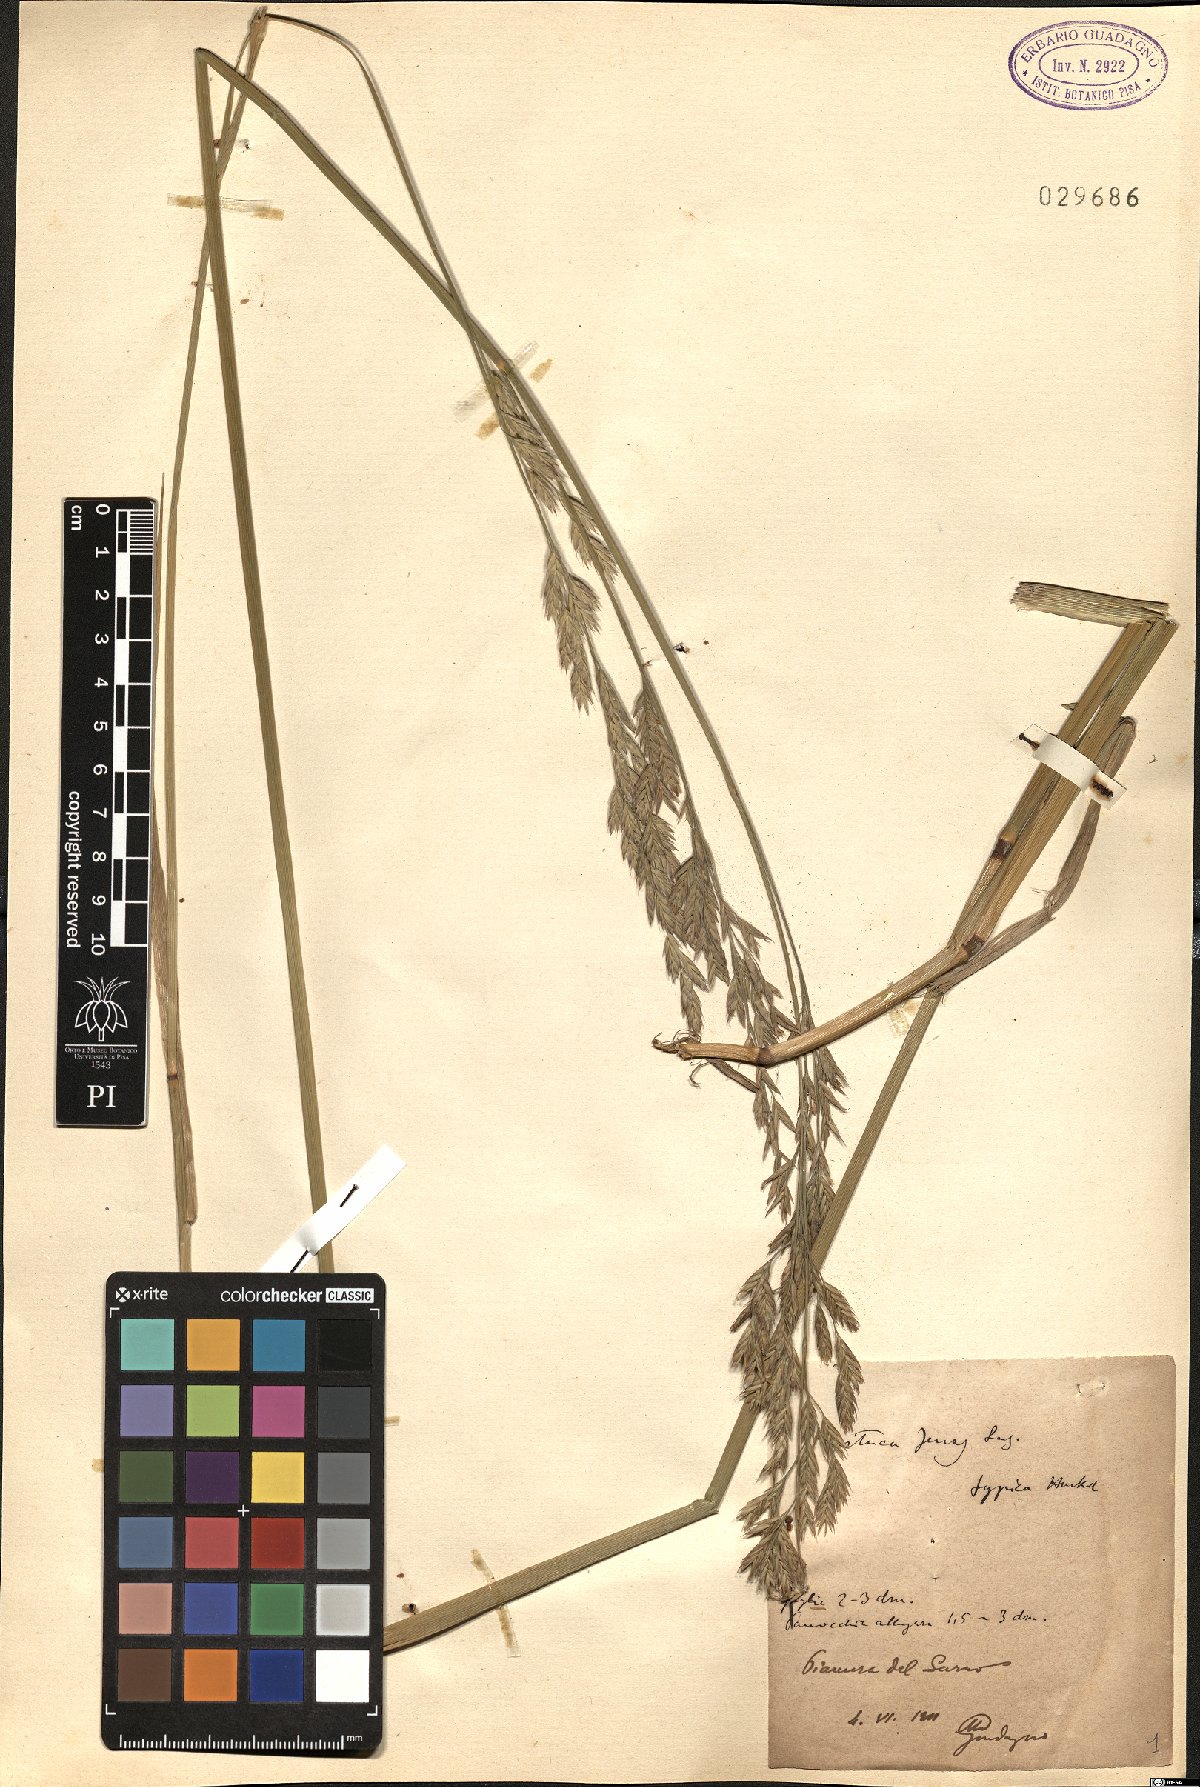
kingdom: Plantae
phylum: Tracheophyta
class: Liliopsida
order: Poales
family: Poaceae
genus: Lolium
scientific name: Lolium interruptum
